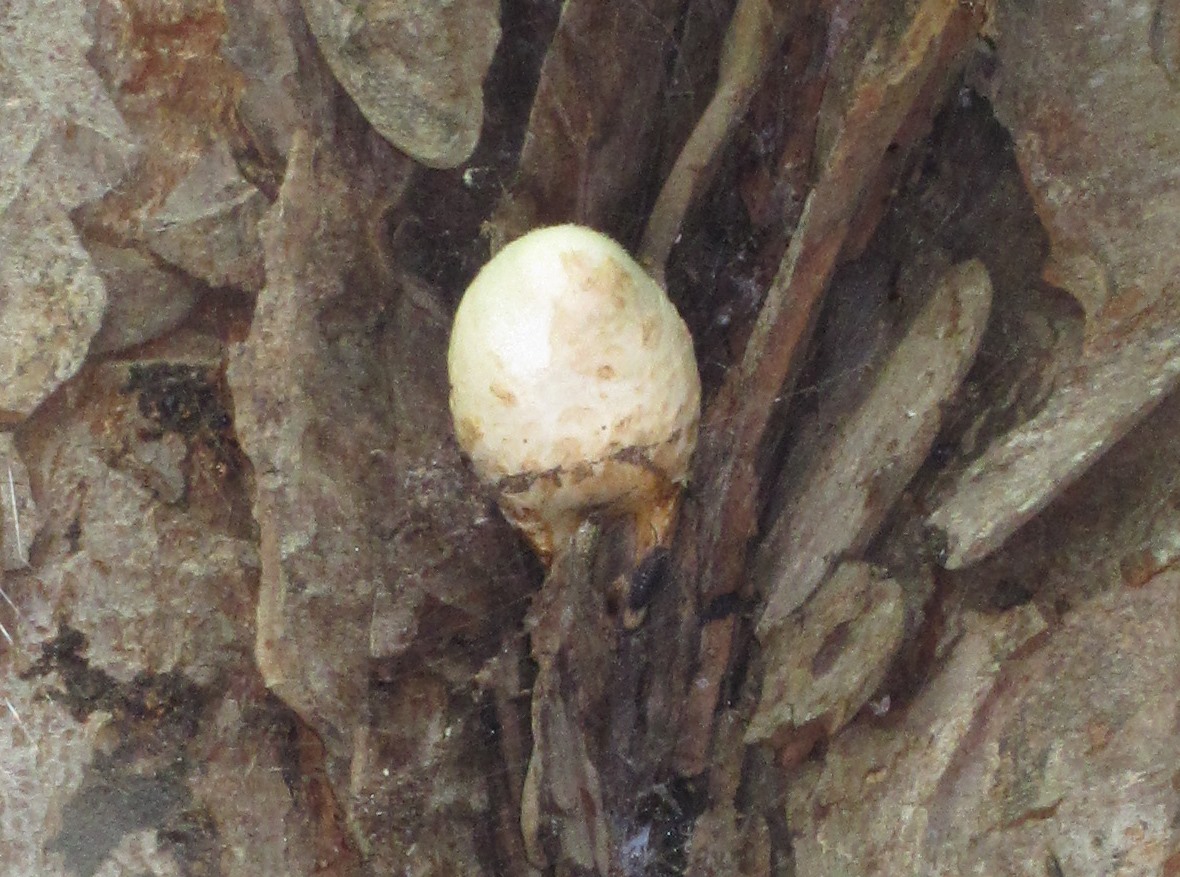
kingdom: Fungi
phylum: Basidiomycota
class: Agaricomycetes
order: Agaricales
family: Pluteaceae
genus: Volvariella
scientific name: Volvariella bombycina
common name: silkehåret posesvamp
